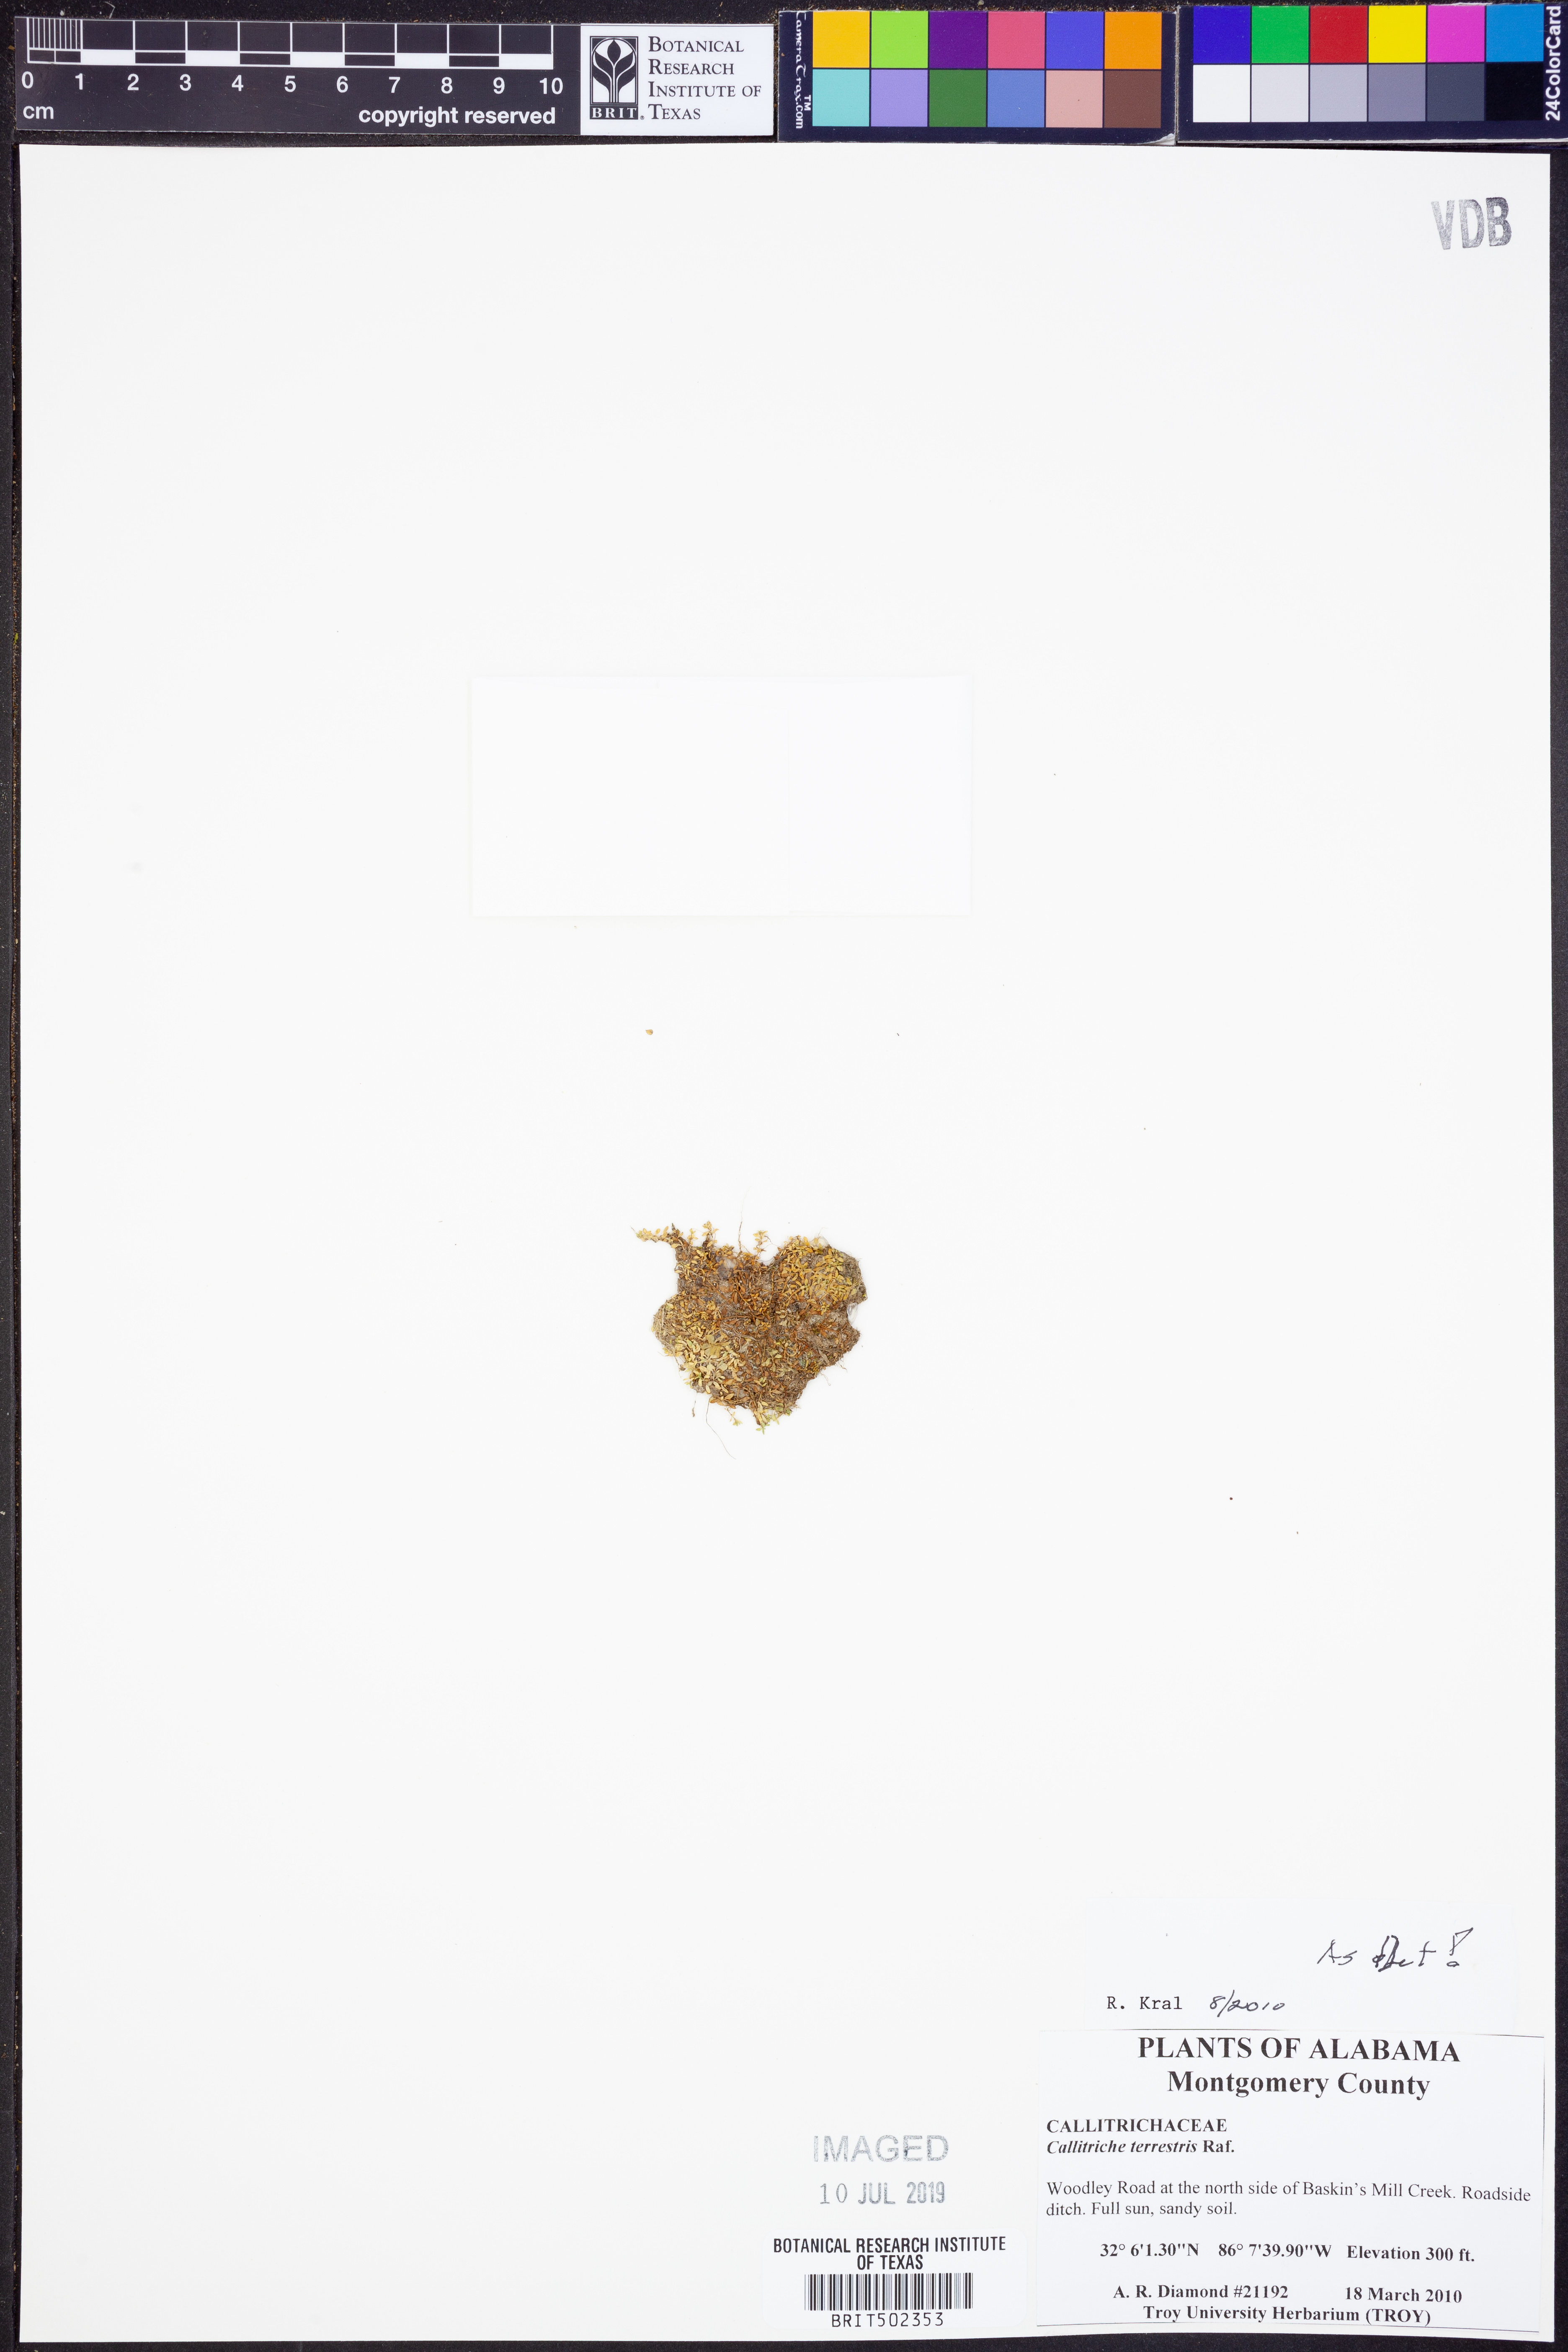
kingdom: Plantae
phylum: Tracheophyta
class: Magnoliopsida
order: Lamiales
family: Plantaginaceae
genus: Callitriche
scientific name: Callitriche terrestris
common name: Terrestrial water-starwort
